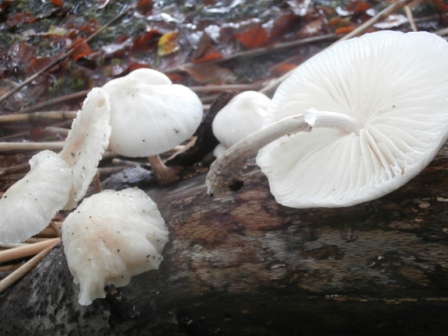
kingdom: Fungi
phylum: Basidiomycota
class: Agaricomycetes
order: Agaricales
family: Physalacriaceae
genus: Mucidula
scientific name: Mucidula mucida
